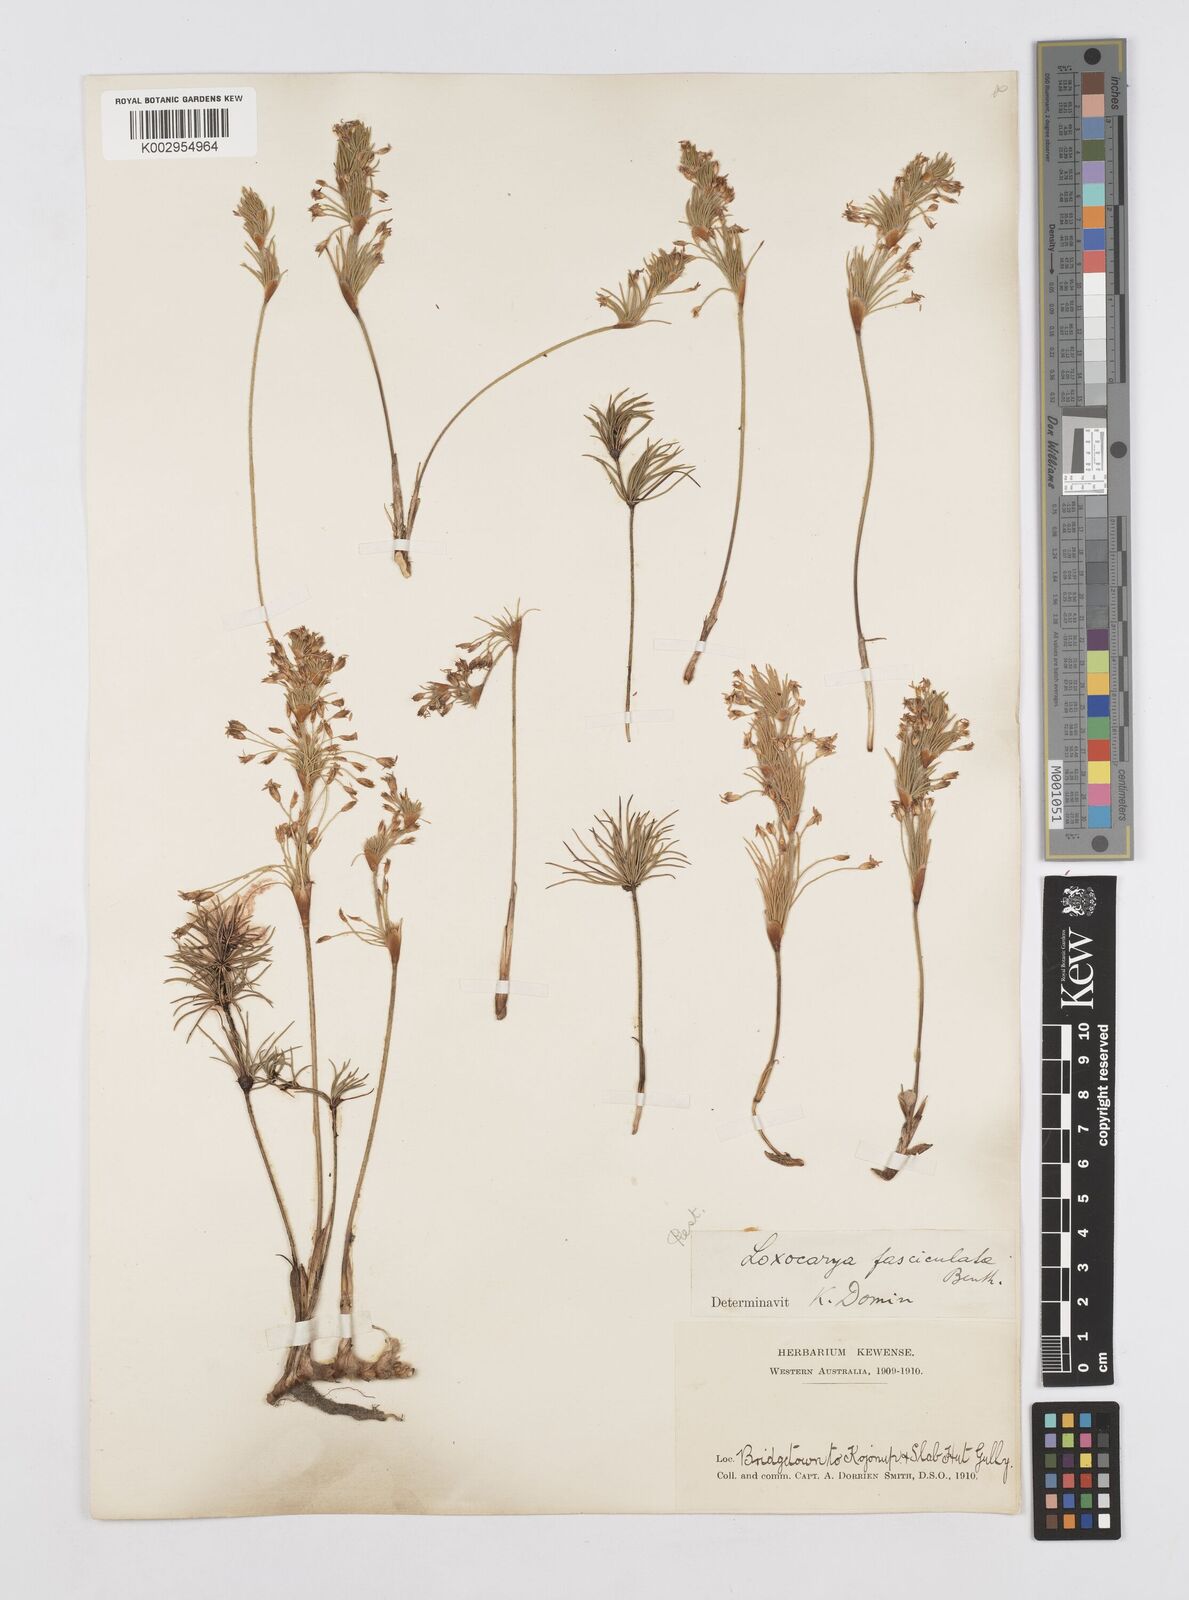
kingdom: Plantae
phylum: Tracheophyta
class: Liliopsida
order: Poales
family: Restionaceae
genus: Desmocladus
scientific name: Desmocladus fasciculatus
